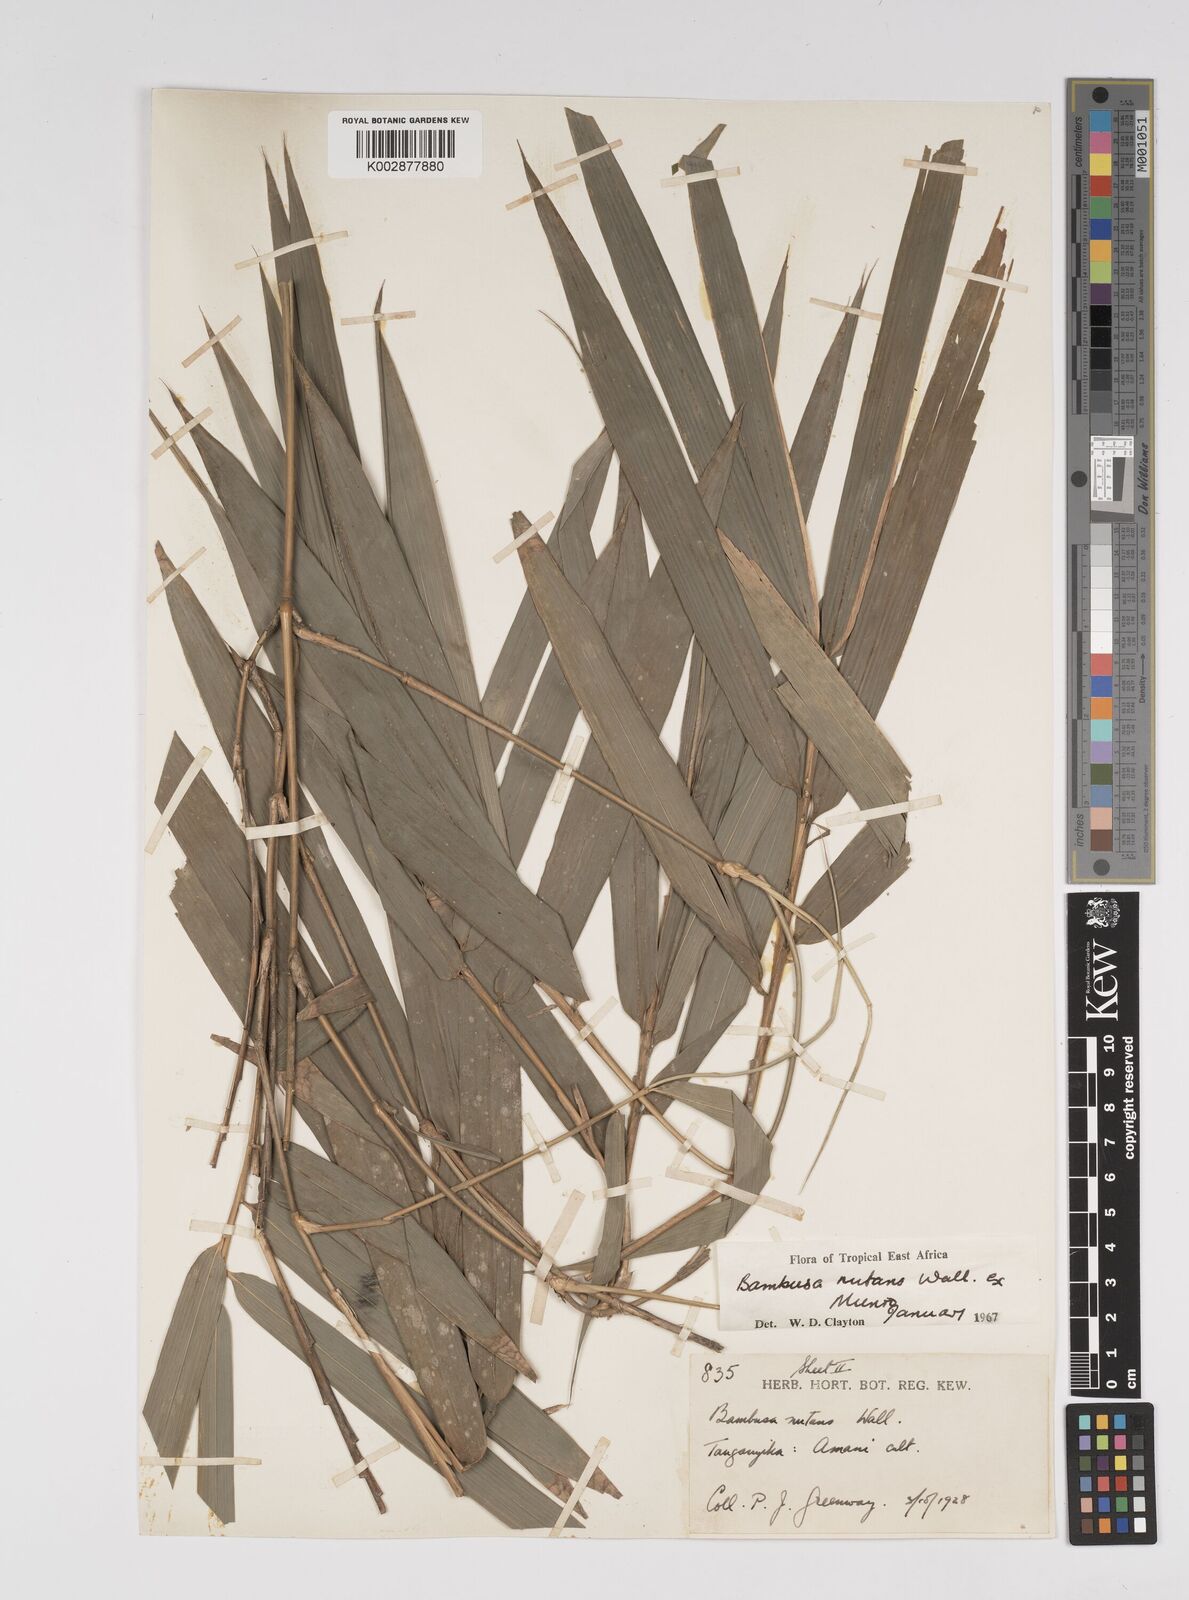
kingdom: Plantae
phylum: Tracheophyta
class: Liliopsida
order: Poales
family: Poaceae
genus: Bambusa
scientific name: Bambusa nutans
